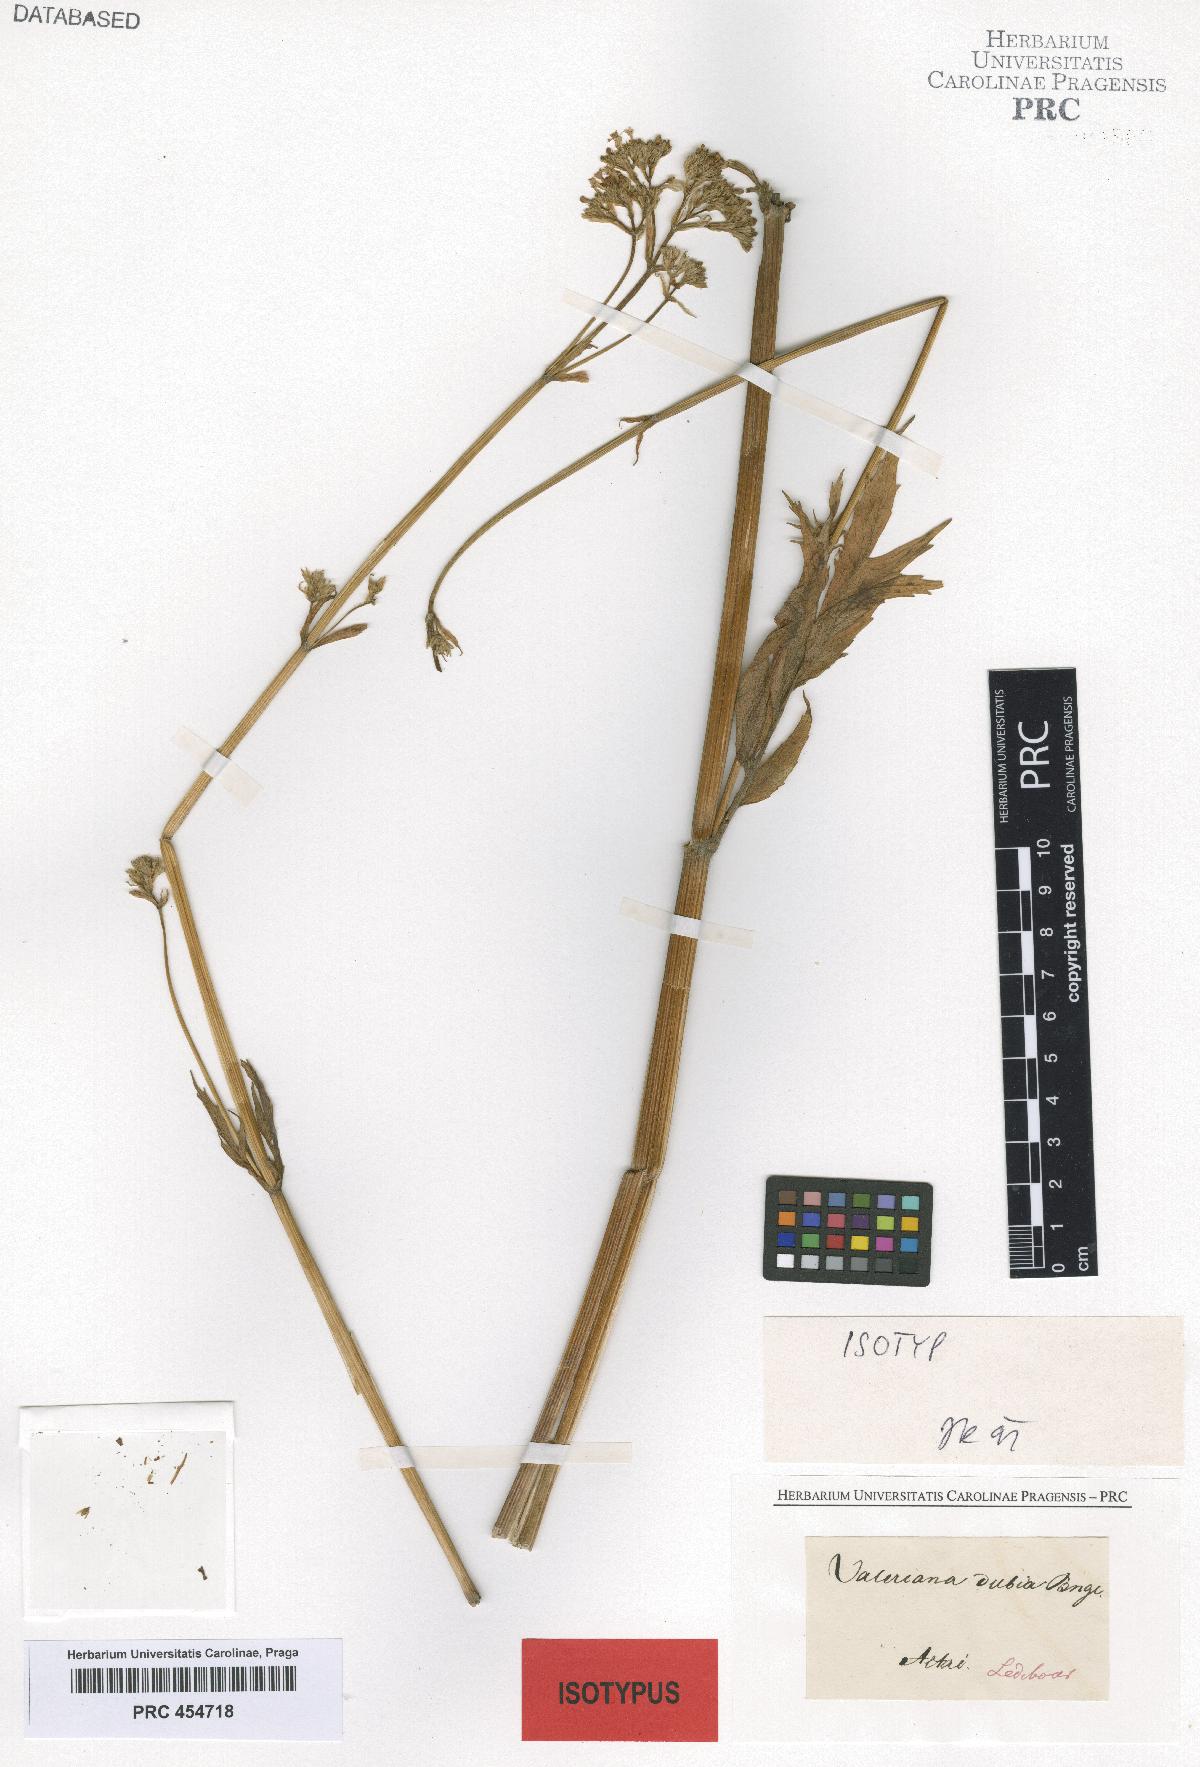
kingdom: Plantae
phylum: Tracheophyta
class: Magnoliopsida
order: Dipsacales
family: Caprifoliaceae
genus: Valeriana
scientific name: Valeriana dubia
